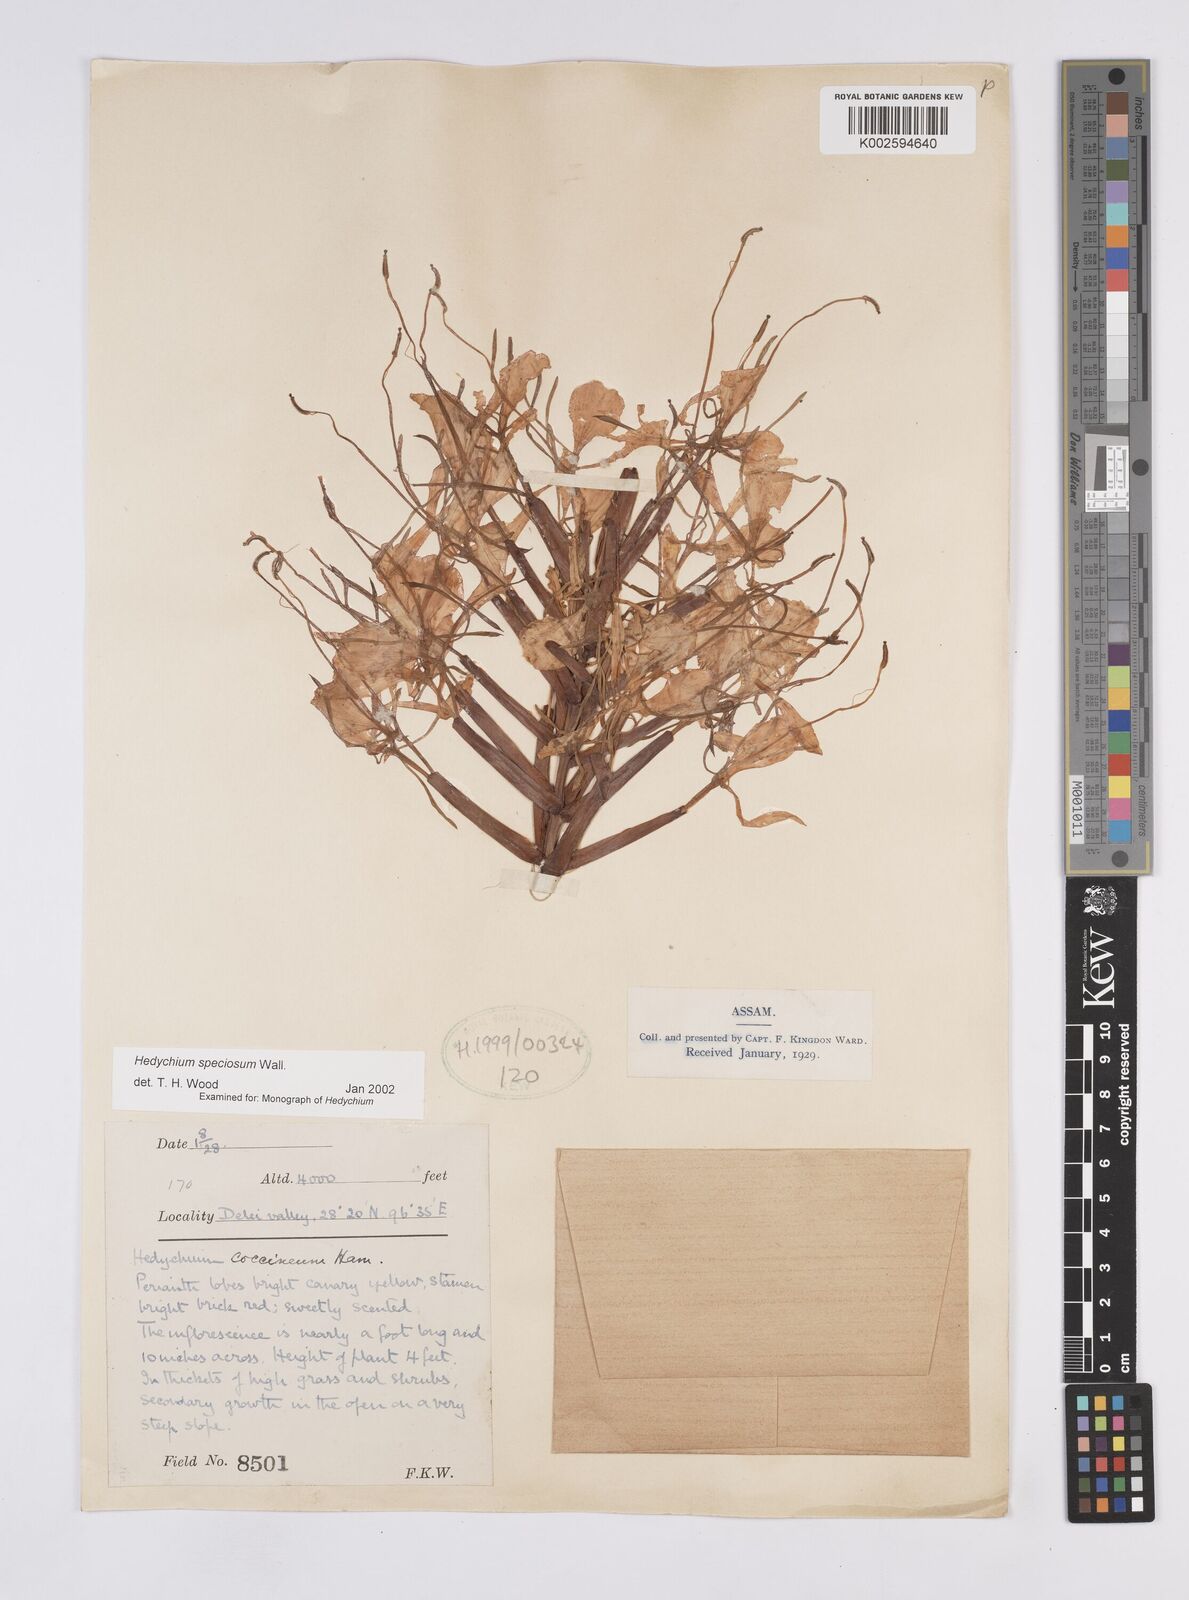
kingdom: Plantae
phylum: Tracheophyta
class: Liliopsida
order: Zingiberales
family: Zingiberaceae
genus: Hedychium
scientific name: Hedychium speciosum
